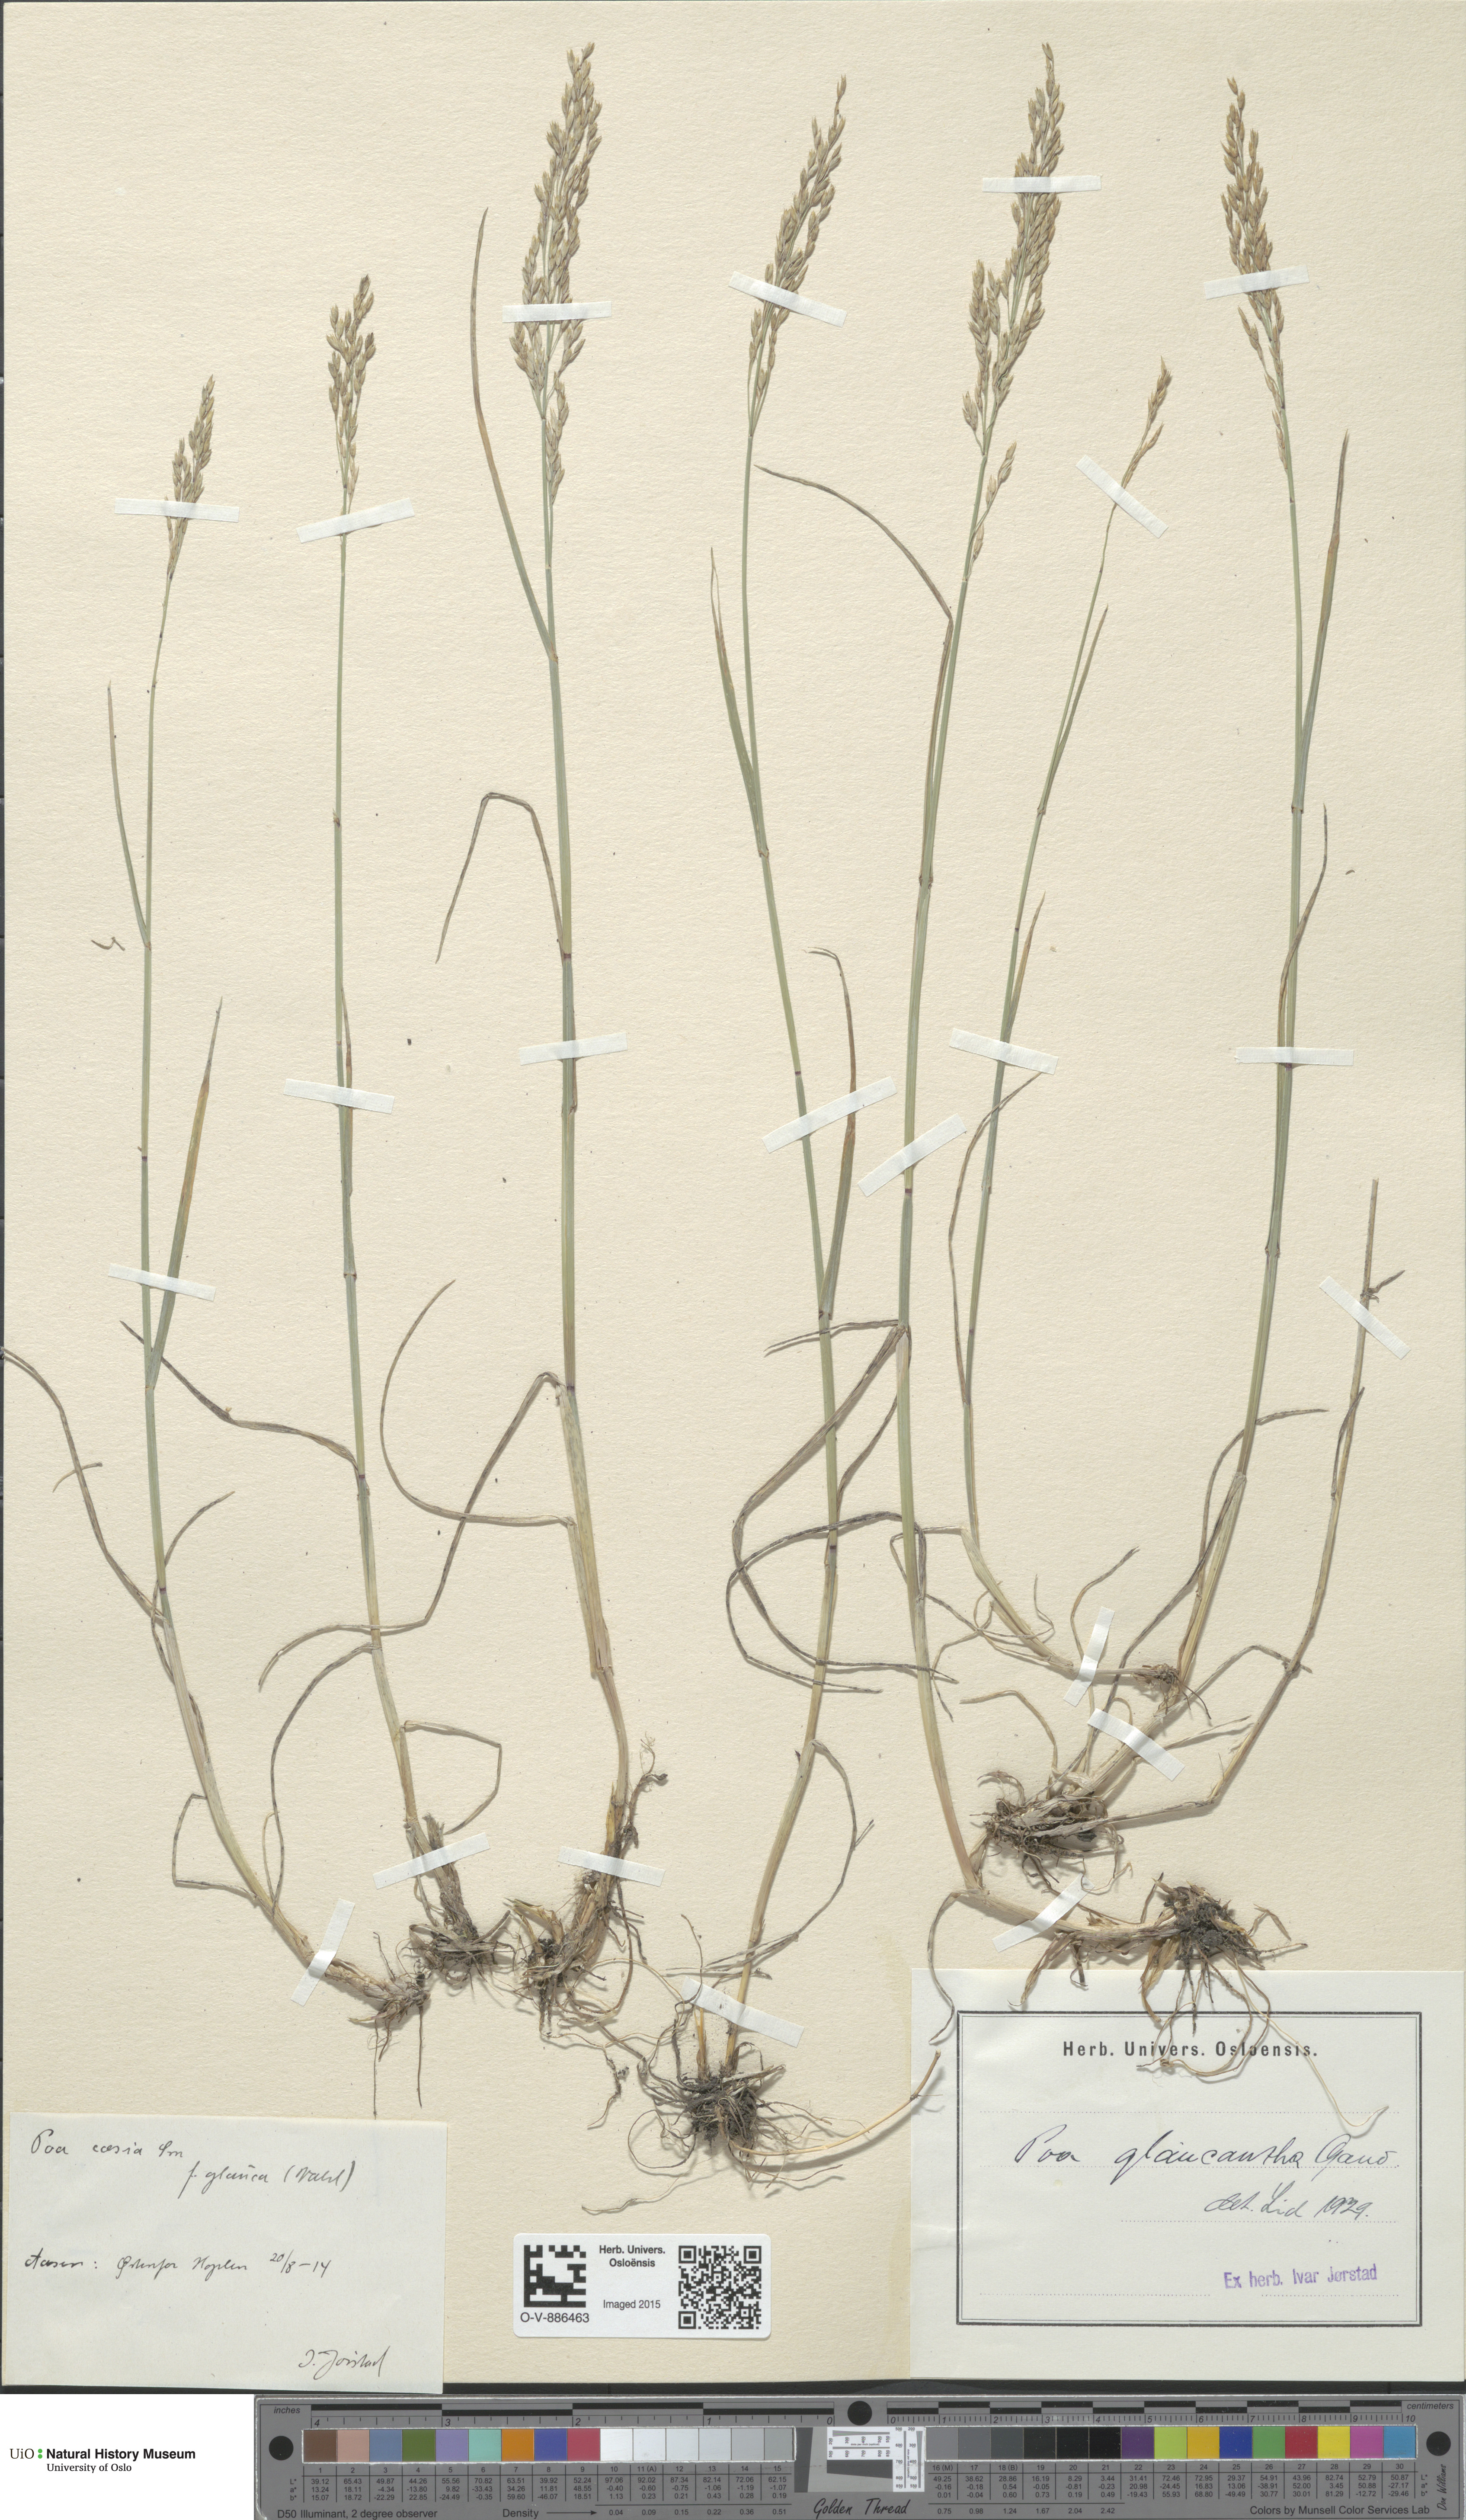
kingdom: Plantae
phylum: Tracheophyta
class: Liliopsida
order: Poales
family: Poaceae
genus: Poa
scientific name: Poa nemoralis
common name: Wood bluegrass
